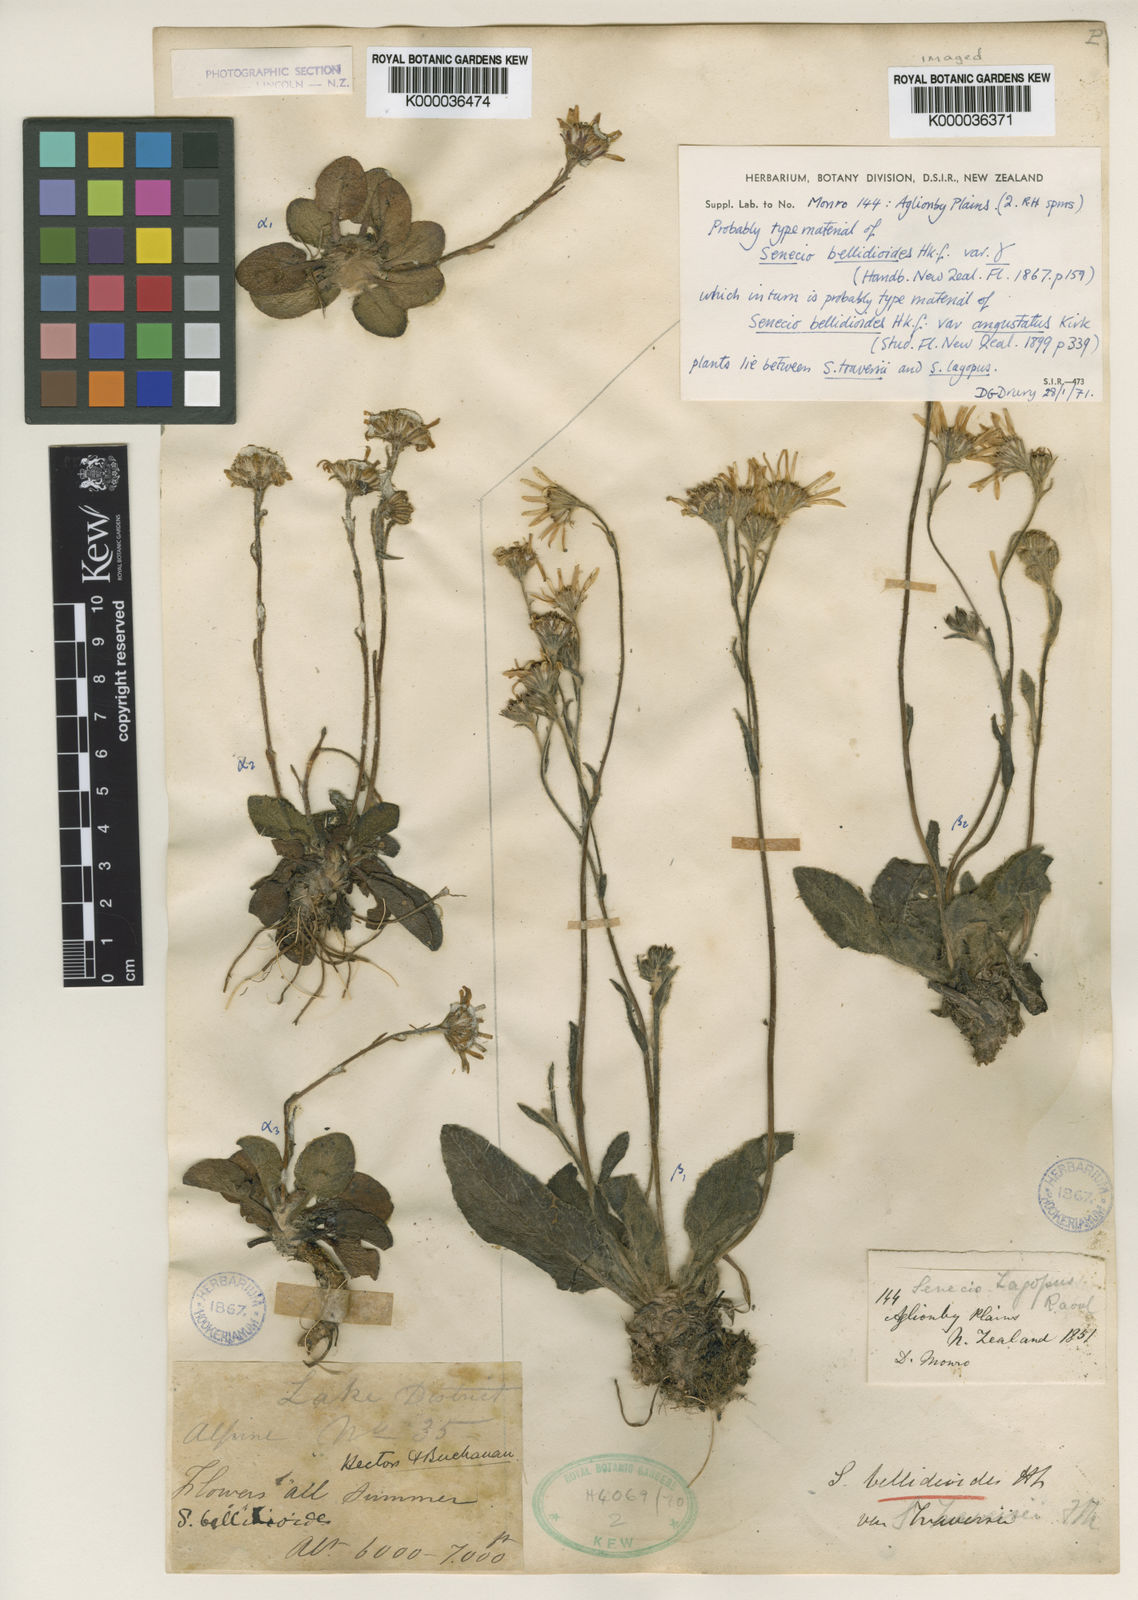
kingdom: Plantae
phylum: Tracheophyta
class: Magnoliopsida
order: Asterales
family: Asteraceae
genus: Brachyglottis
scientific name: Brachyglottis bellidioides
